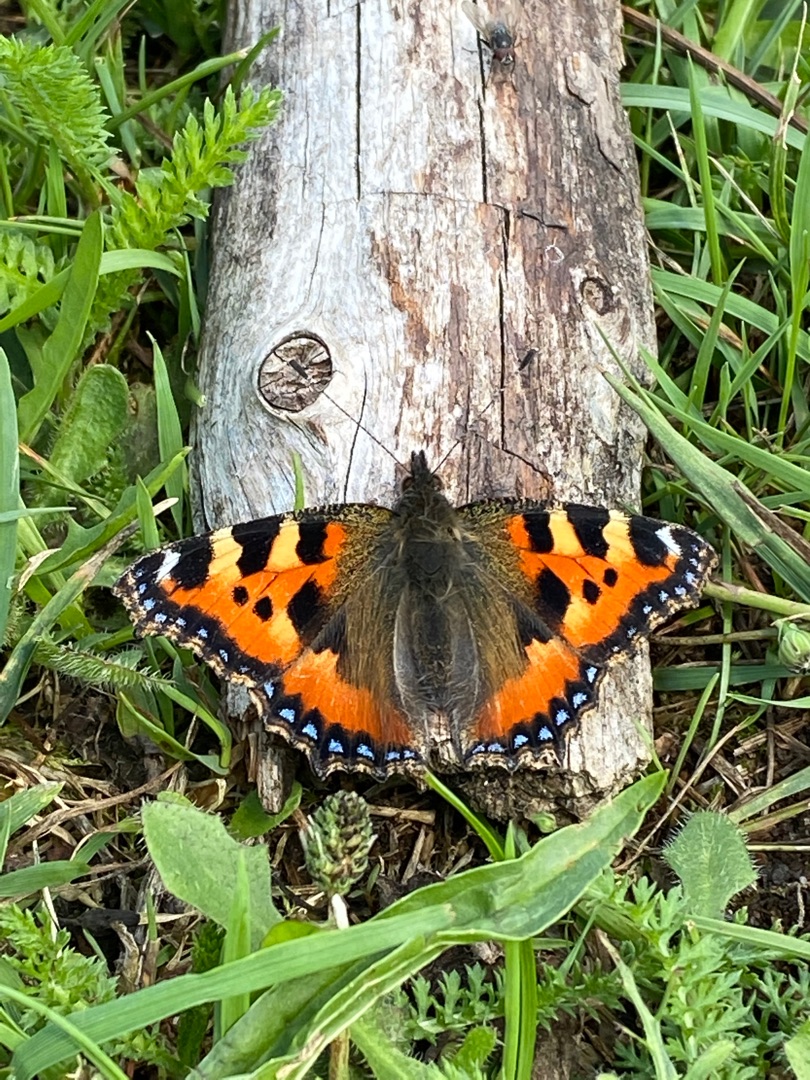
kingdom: Animalia
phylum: Arthropoda
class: Insecta
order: Lepidoptera
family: Nymphalidae
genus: Aglais
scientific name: Aglais urticae
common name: Nældens takvinge
